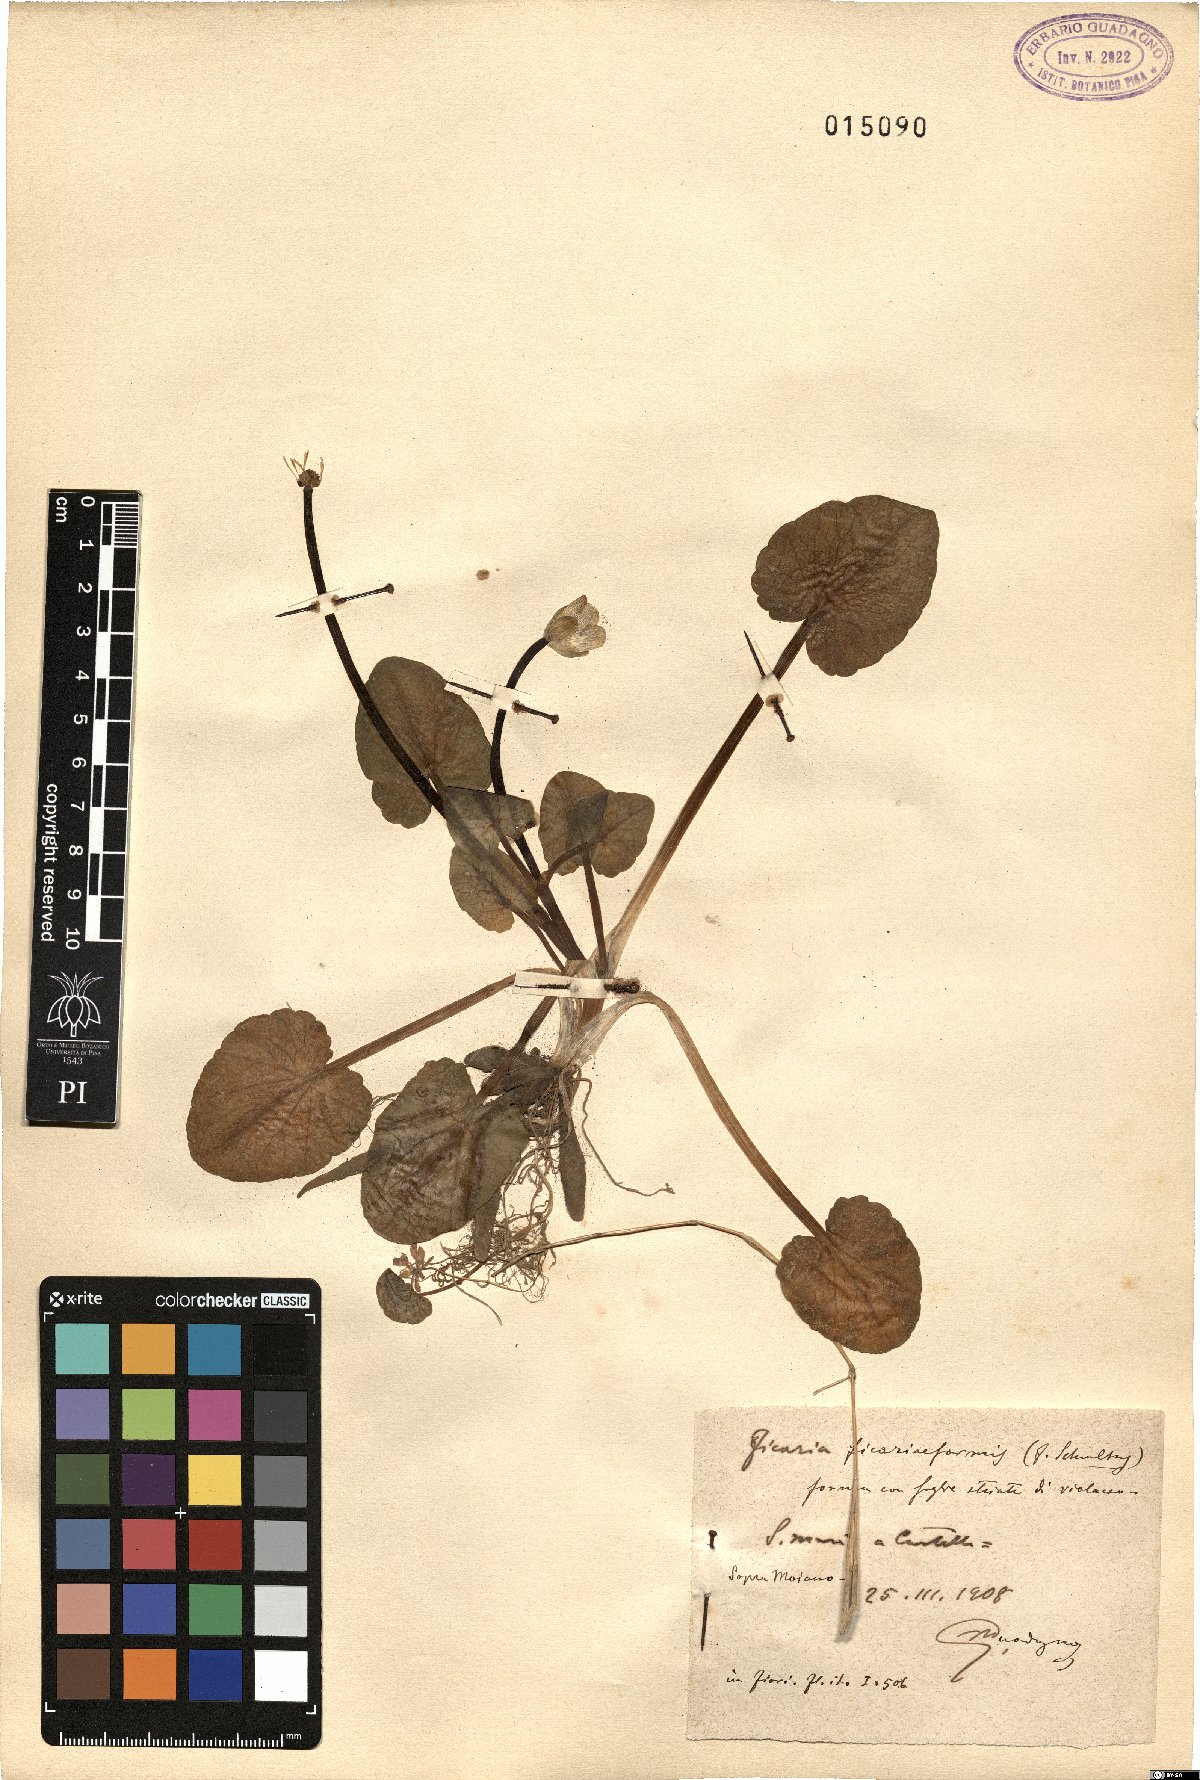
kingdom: Plantae
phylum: Tracheophyta
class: Magnoliopsida
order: Ranunculales
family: Ranunculaceae
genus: Ficaria
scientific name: Ficaria grandiflora
